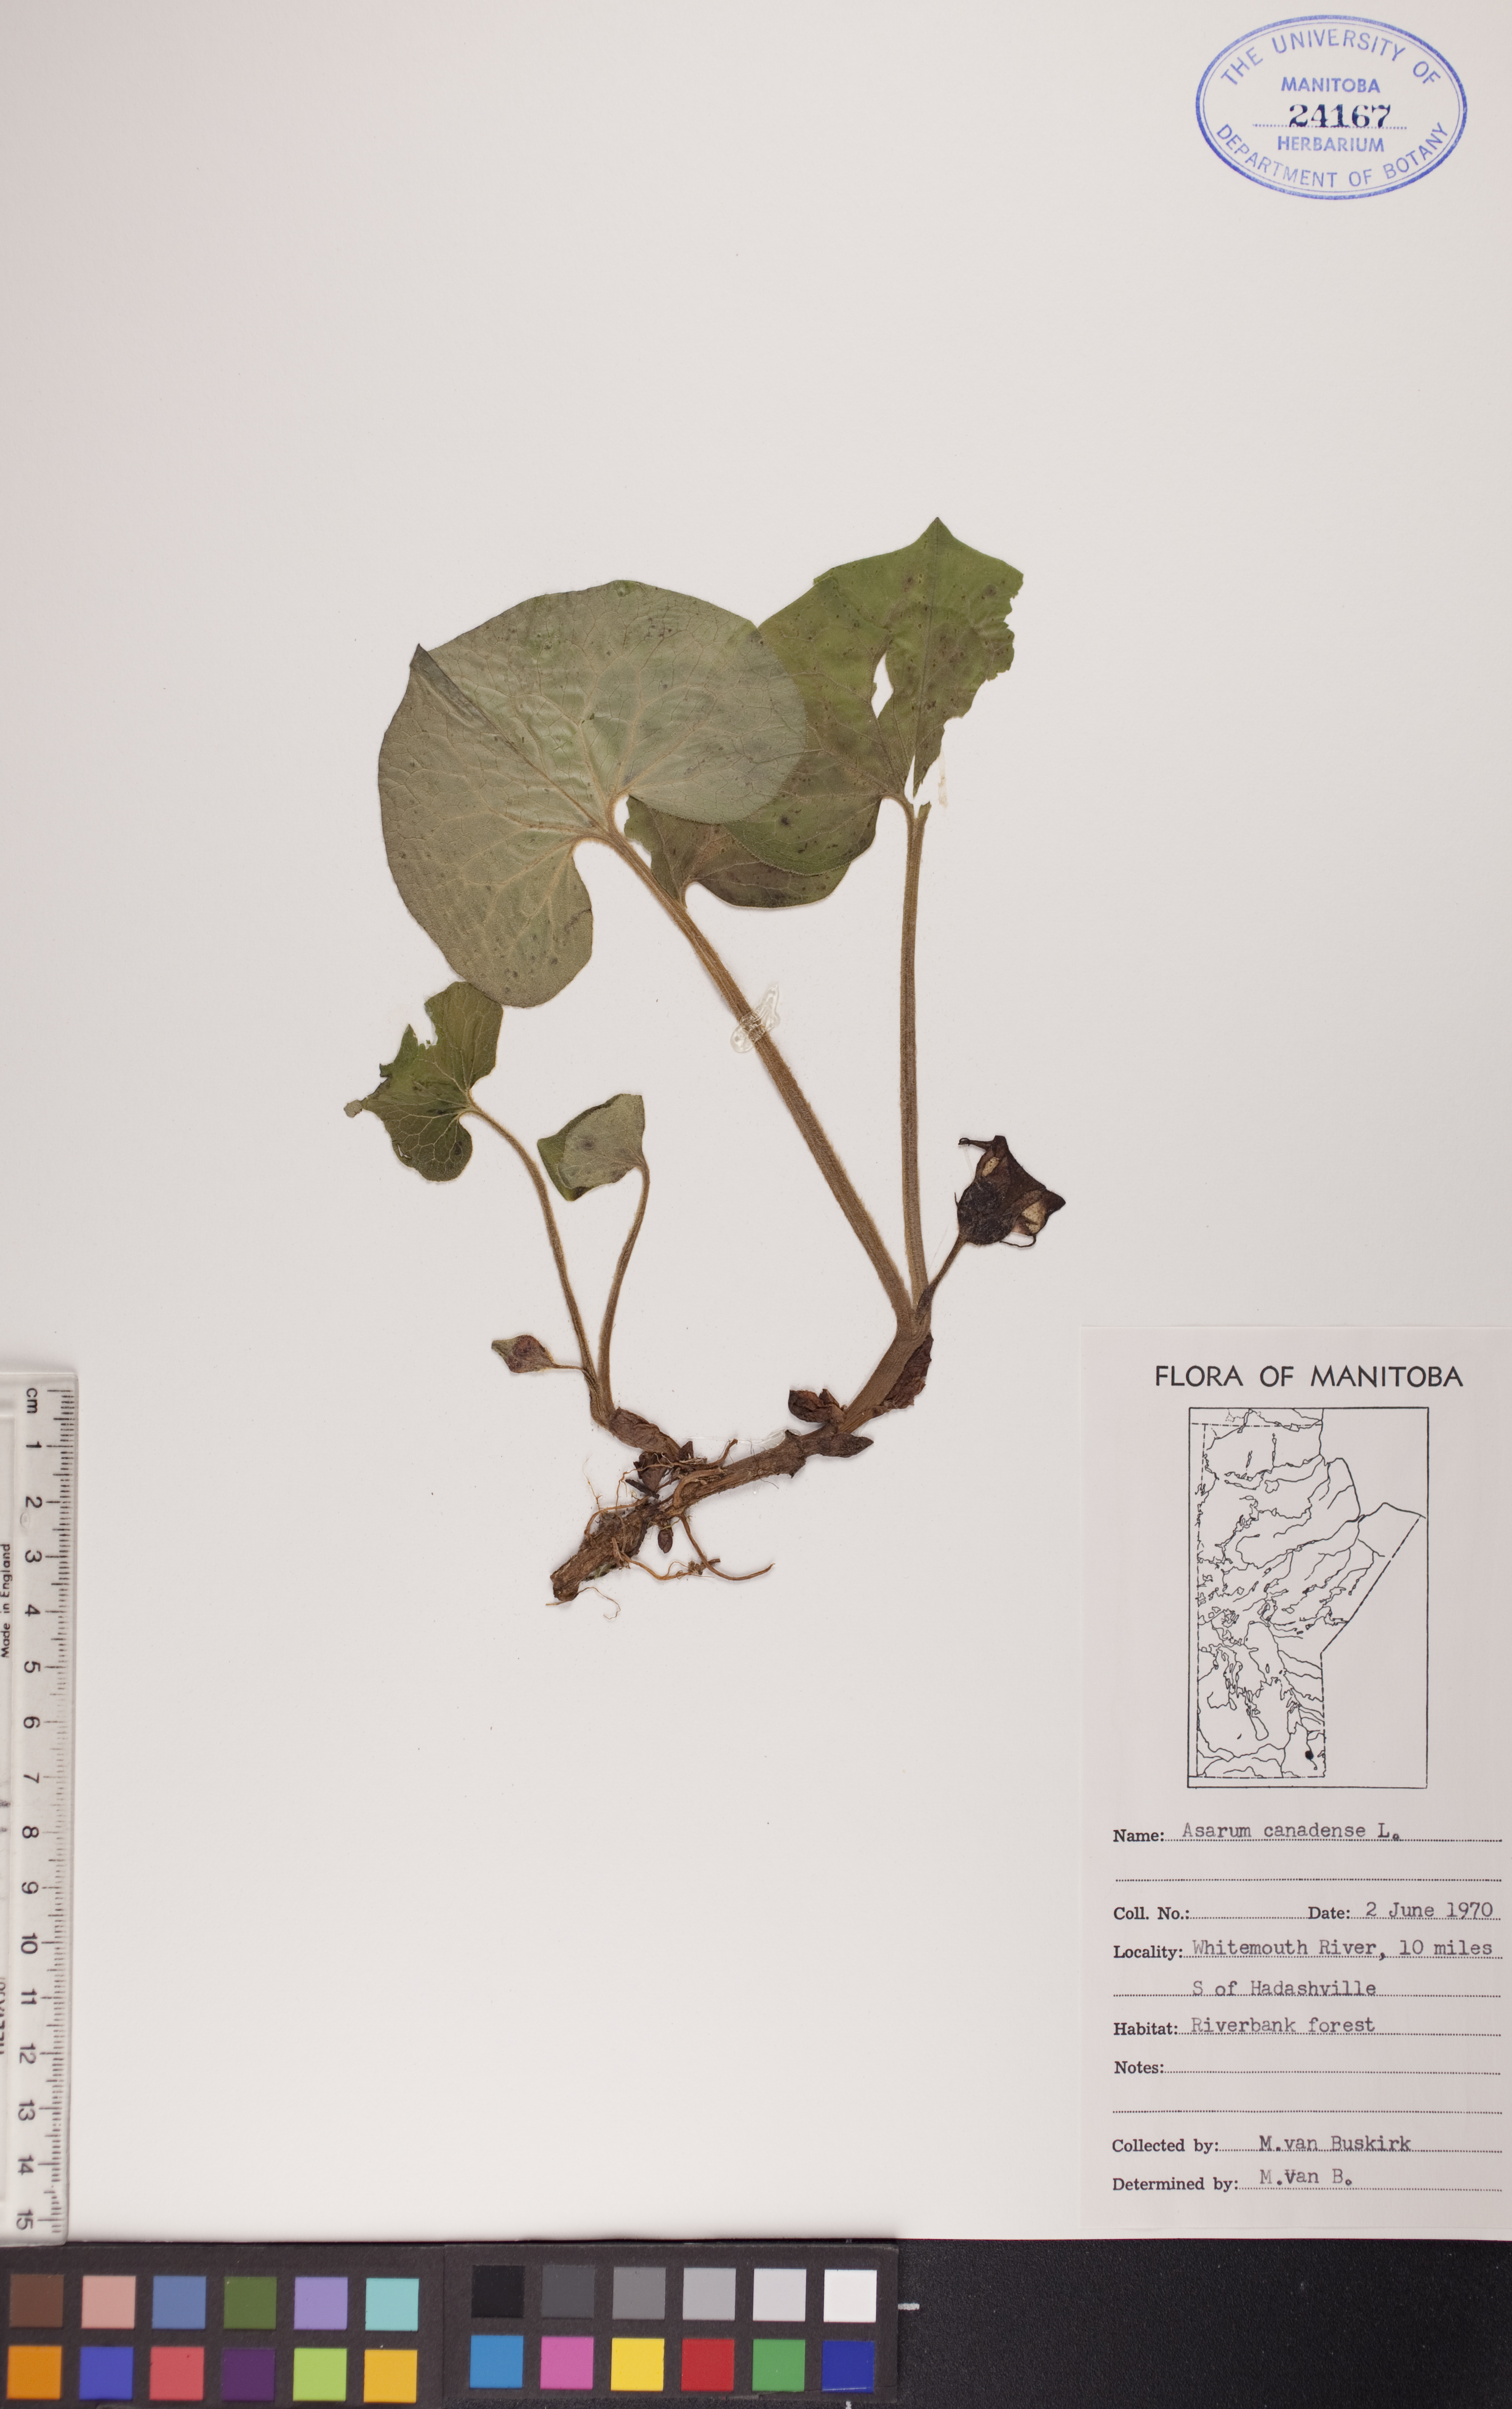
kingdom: Plantae
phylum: Tracheophyta
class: Magnoliopsida
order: Piperales
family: Aristolochiaceae
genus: Asarum
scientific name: Asarum canadense
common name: Wild ginger
